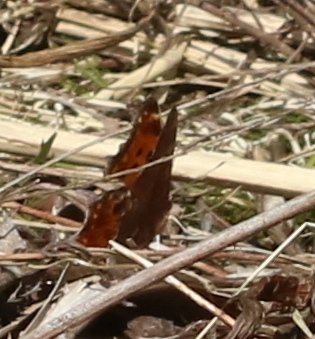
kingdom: Animalia
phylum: Arthropoda
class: Insecta
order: Lepidoptera
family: Nymphalidae
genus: Polygonia
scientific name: Polygonia comma
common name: Eastern Comma
